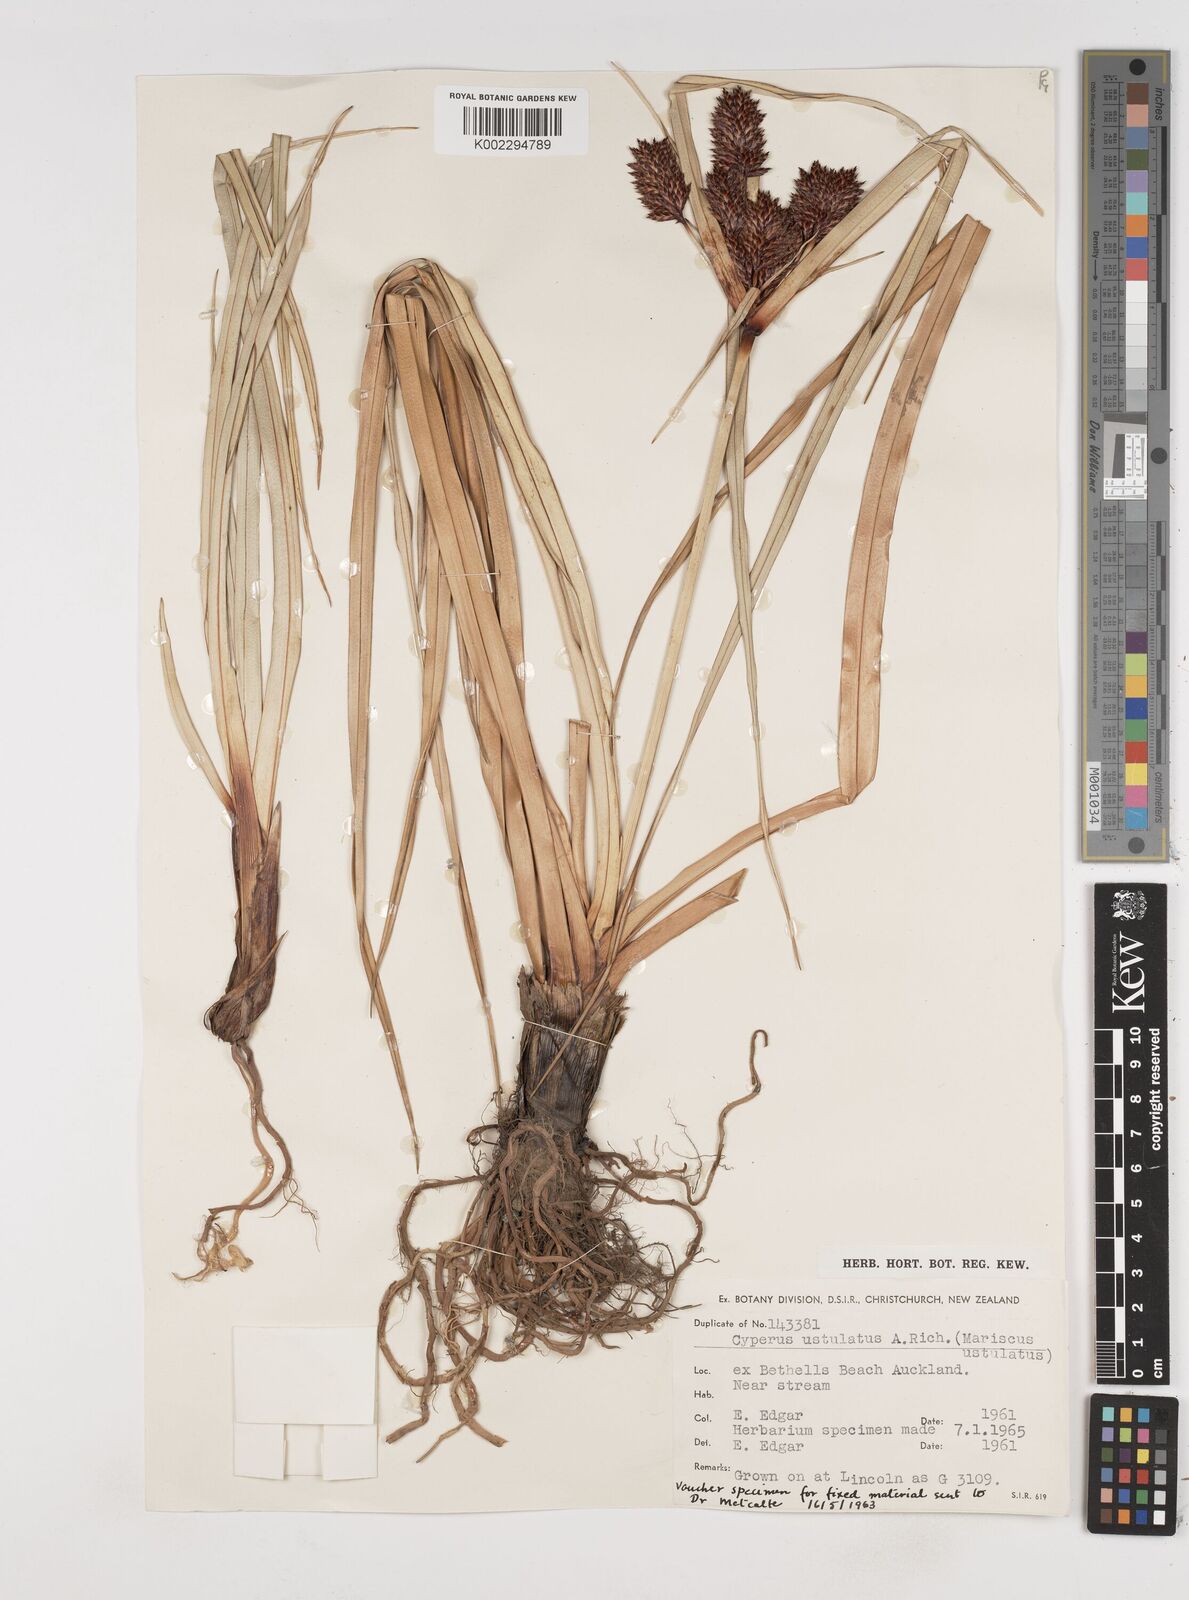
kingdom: Plantae
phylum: Tracheophyta
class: Liliopsida
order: Poales
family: Cyperaceae
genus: Cyperus
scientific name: Cyperus ustulatus
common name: Giant umbrella-sedge
